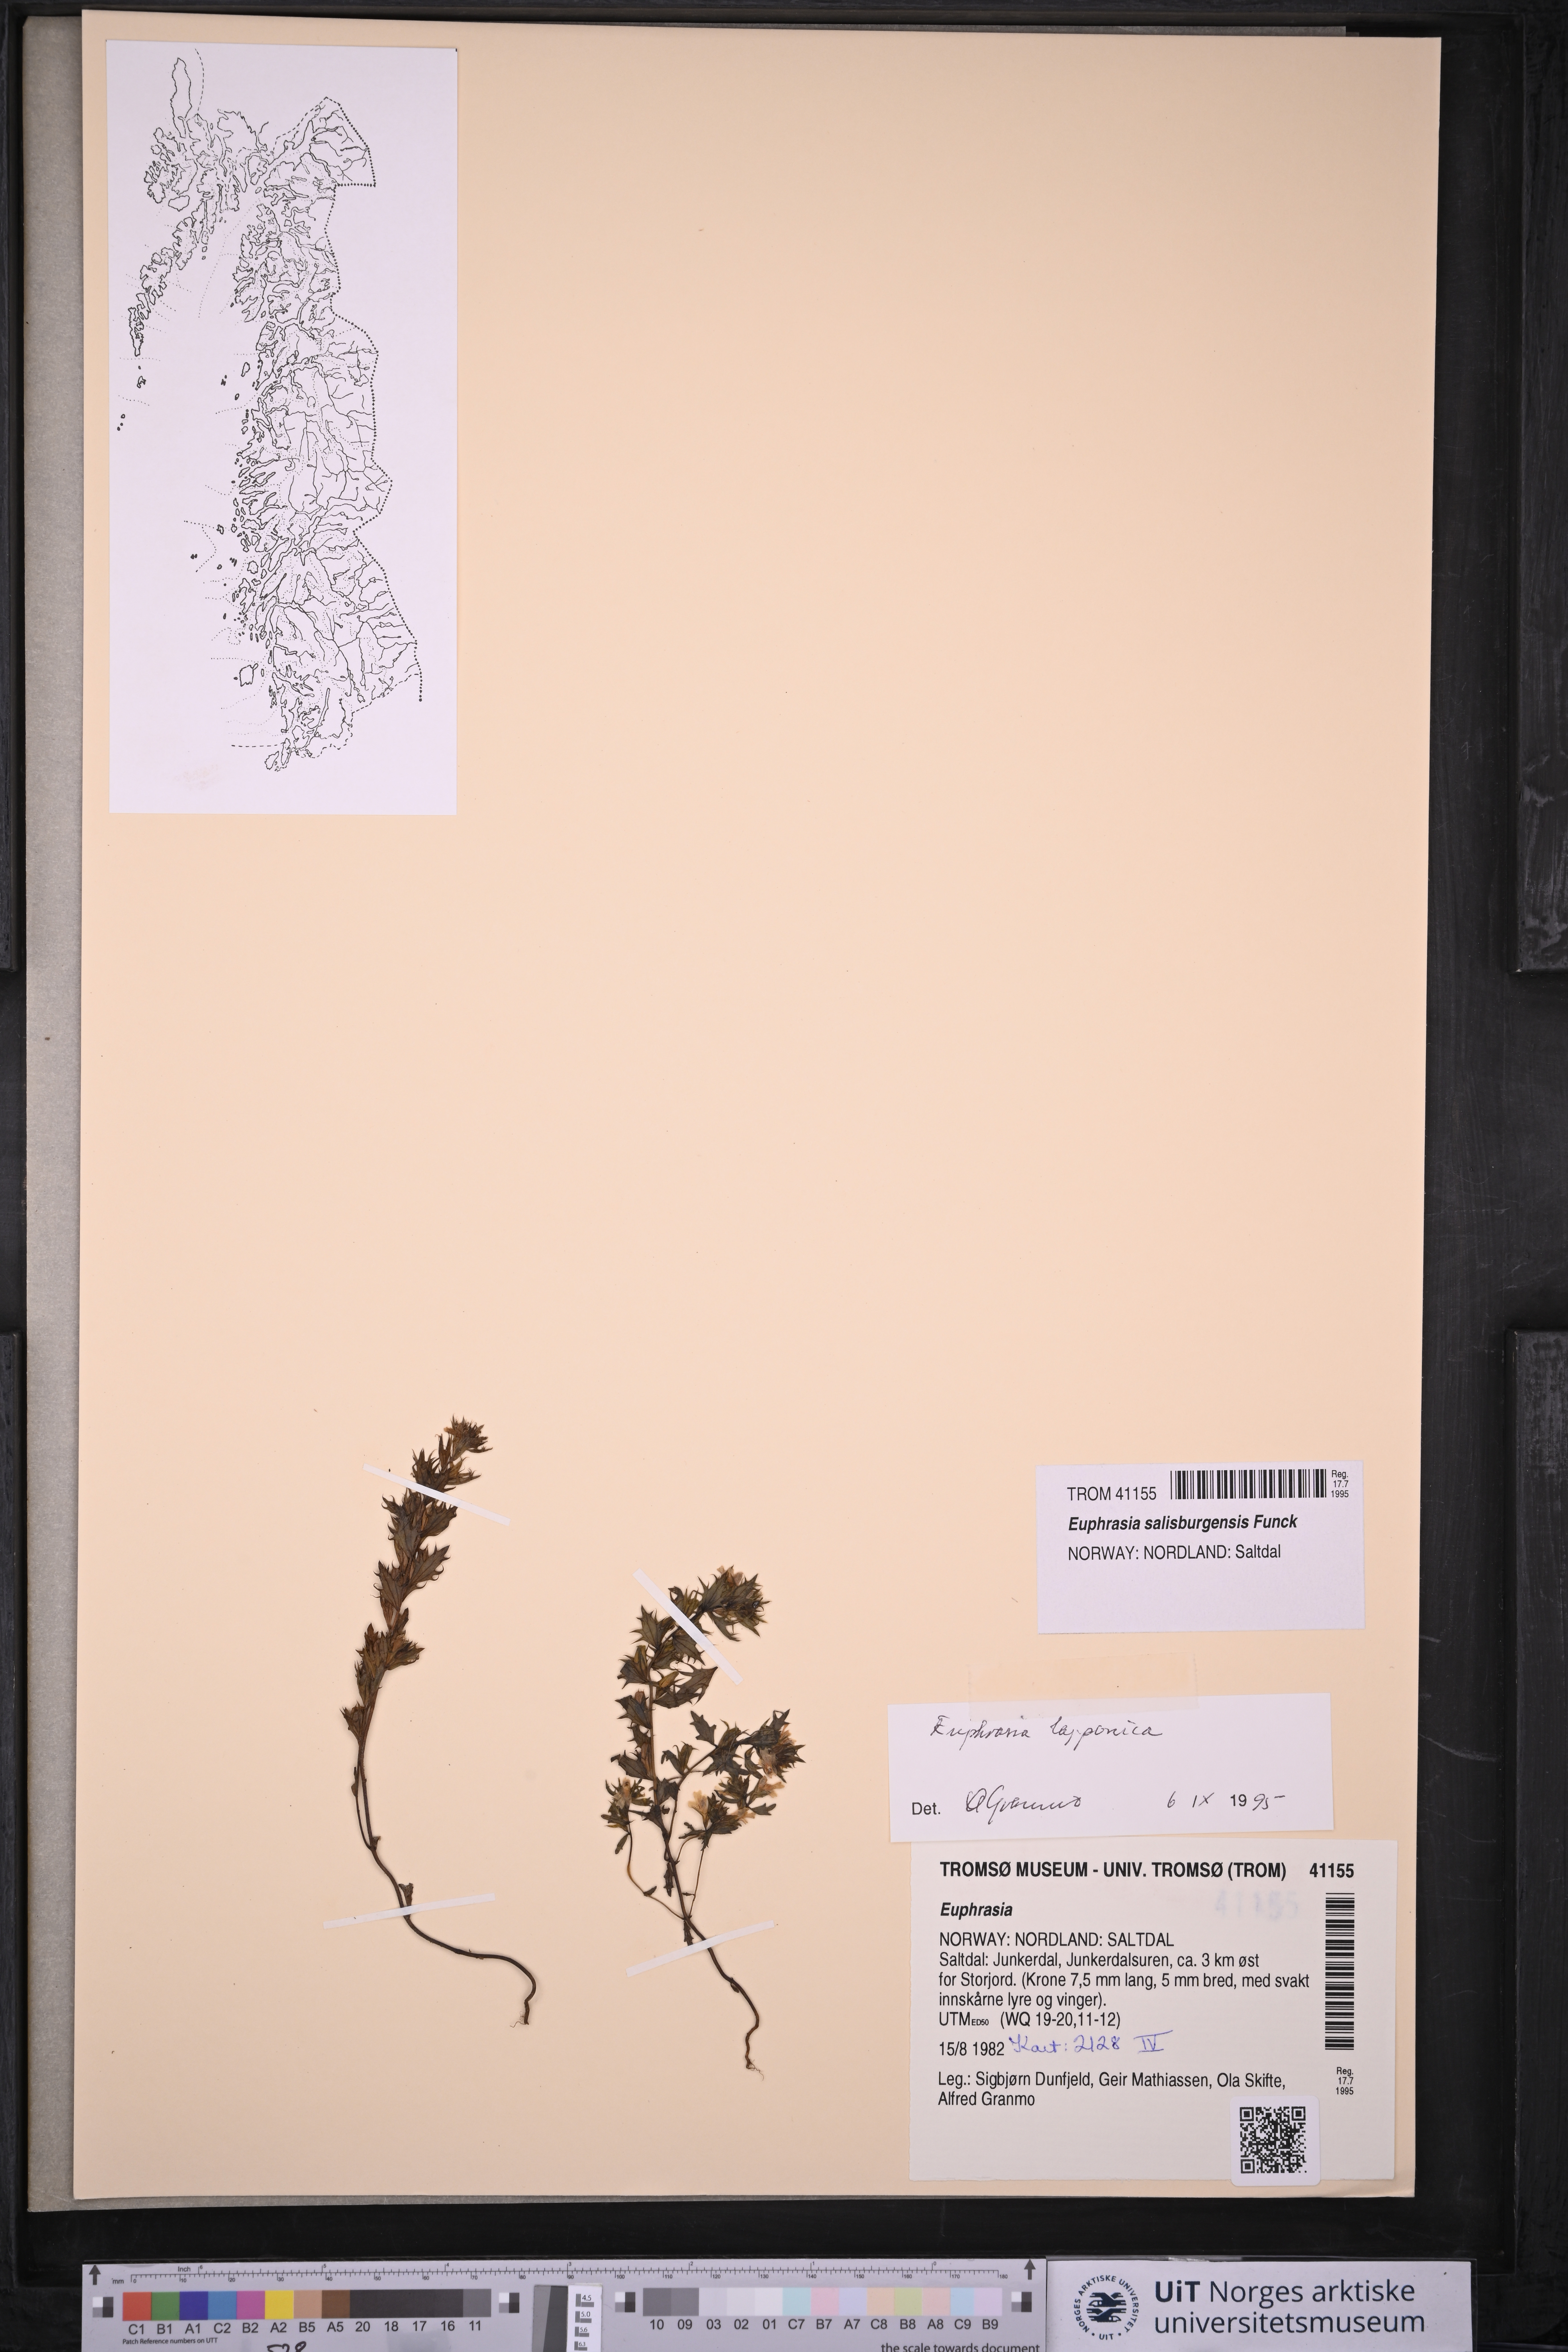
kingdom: Plantae
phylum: Tracheophyta
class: Magnoliopsida
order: Lamiales
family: Orobanchaceae
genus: Euphrasia
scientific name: Euphrasia salisburgensis
